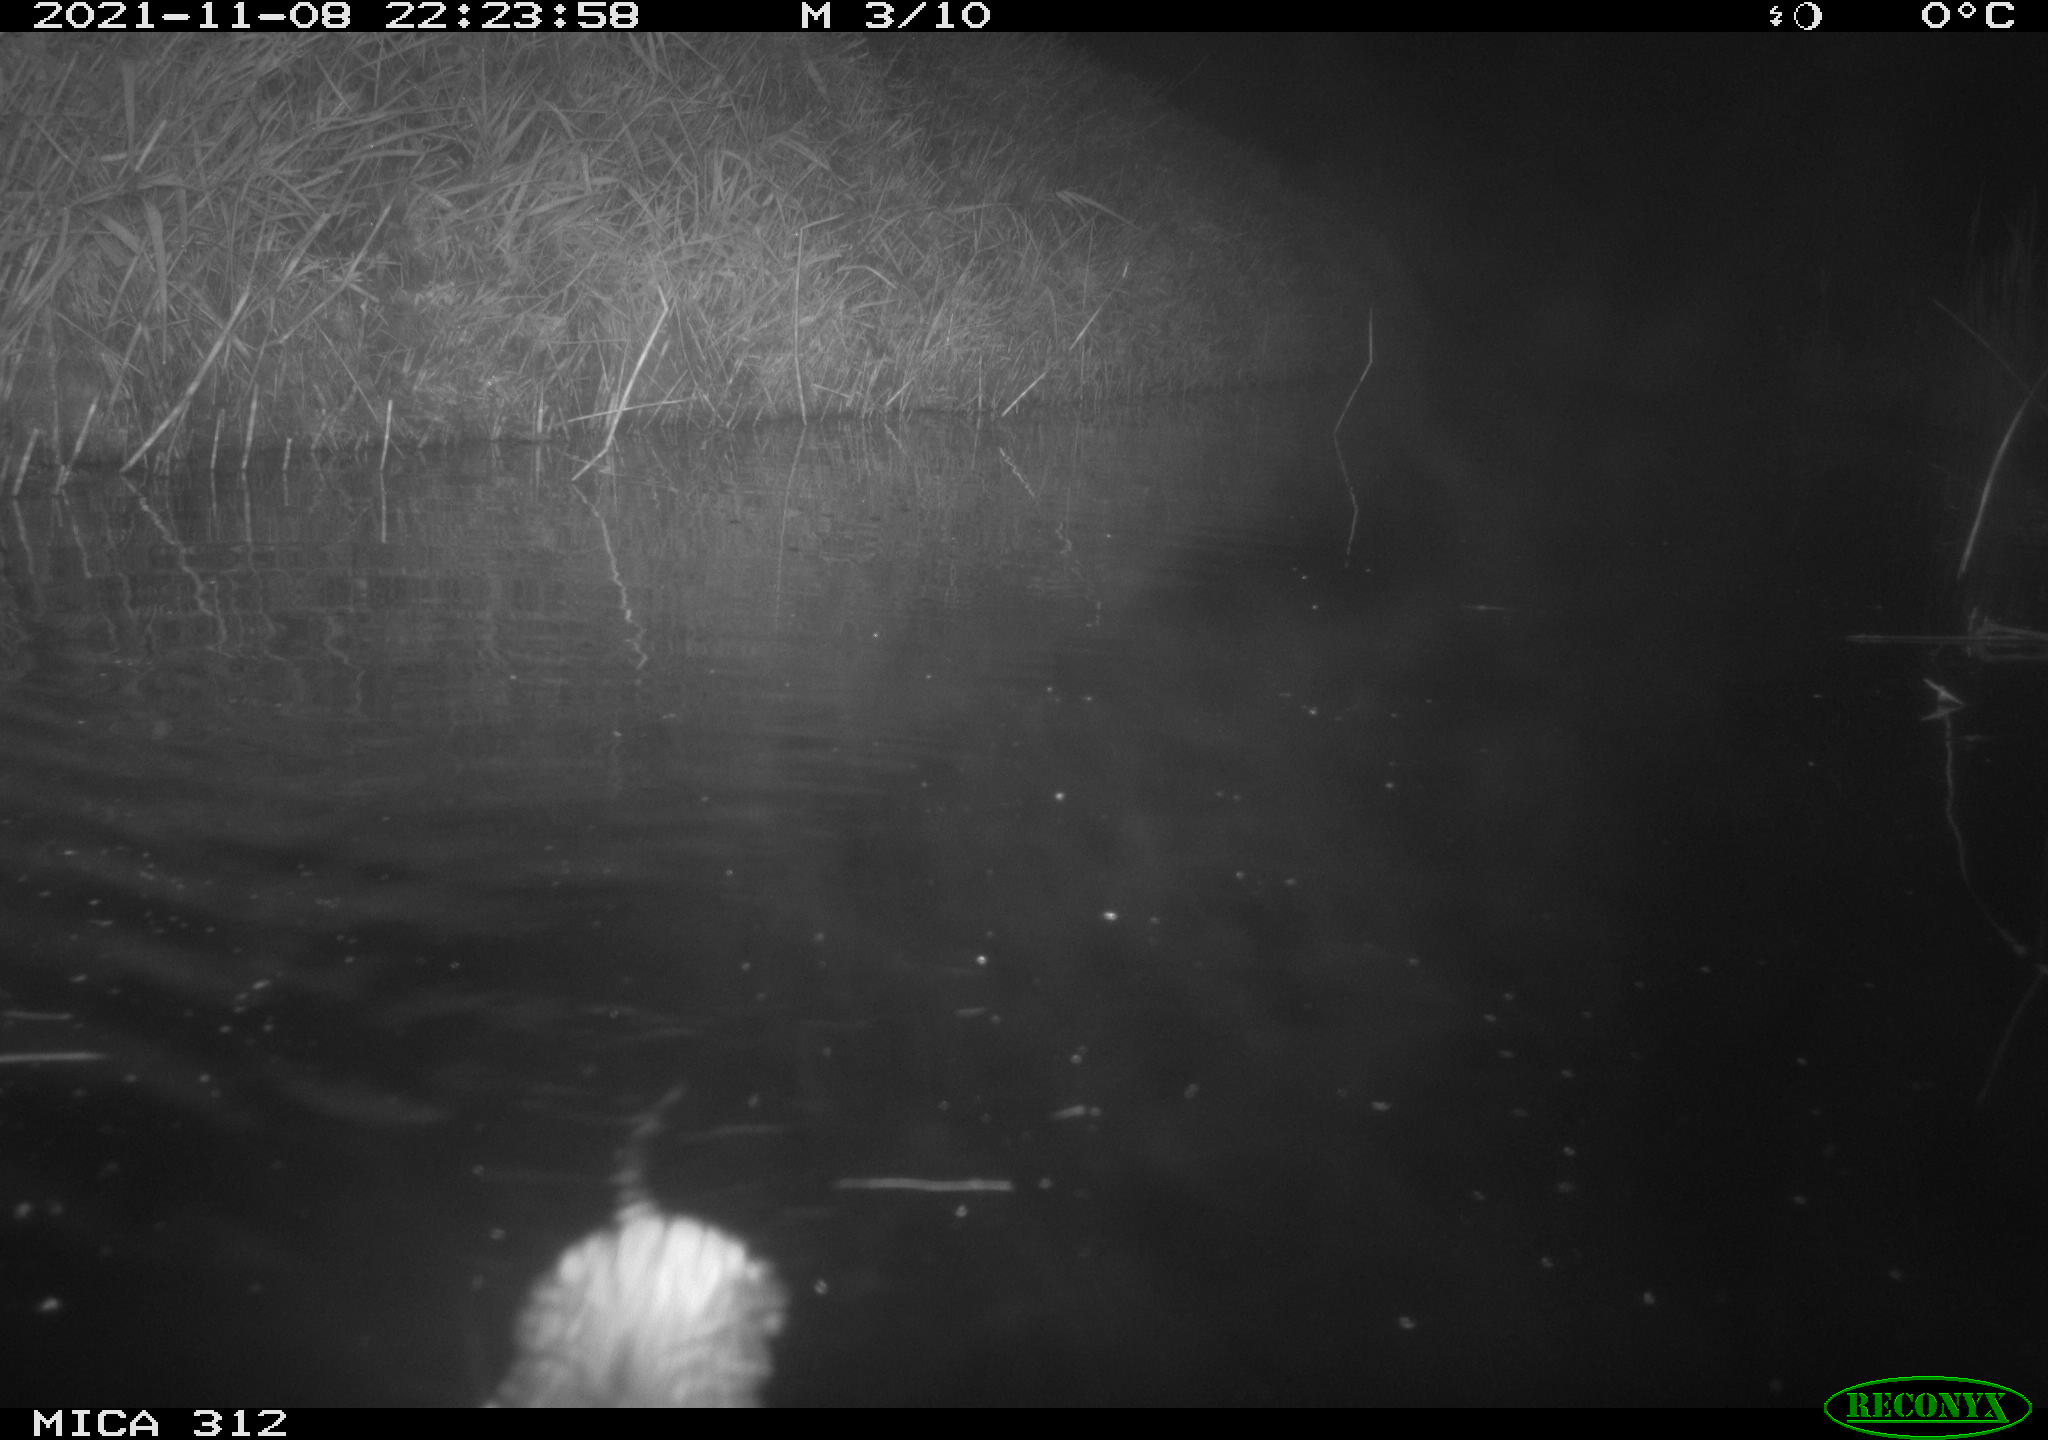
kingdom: Animalia
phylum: Chordata
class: Mammalia
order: Rodentia
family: Cricetidae
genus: Ondatra
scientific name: Ondatra zibethicus
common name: Muskrat
